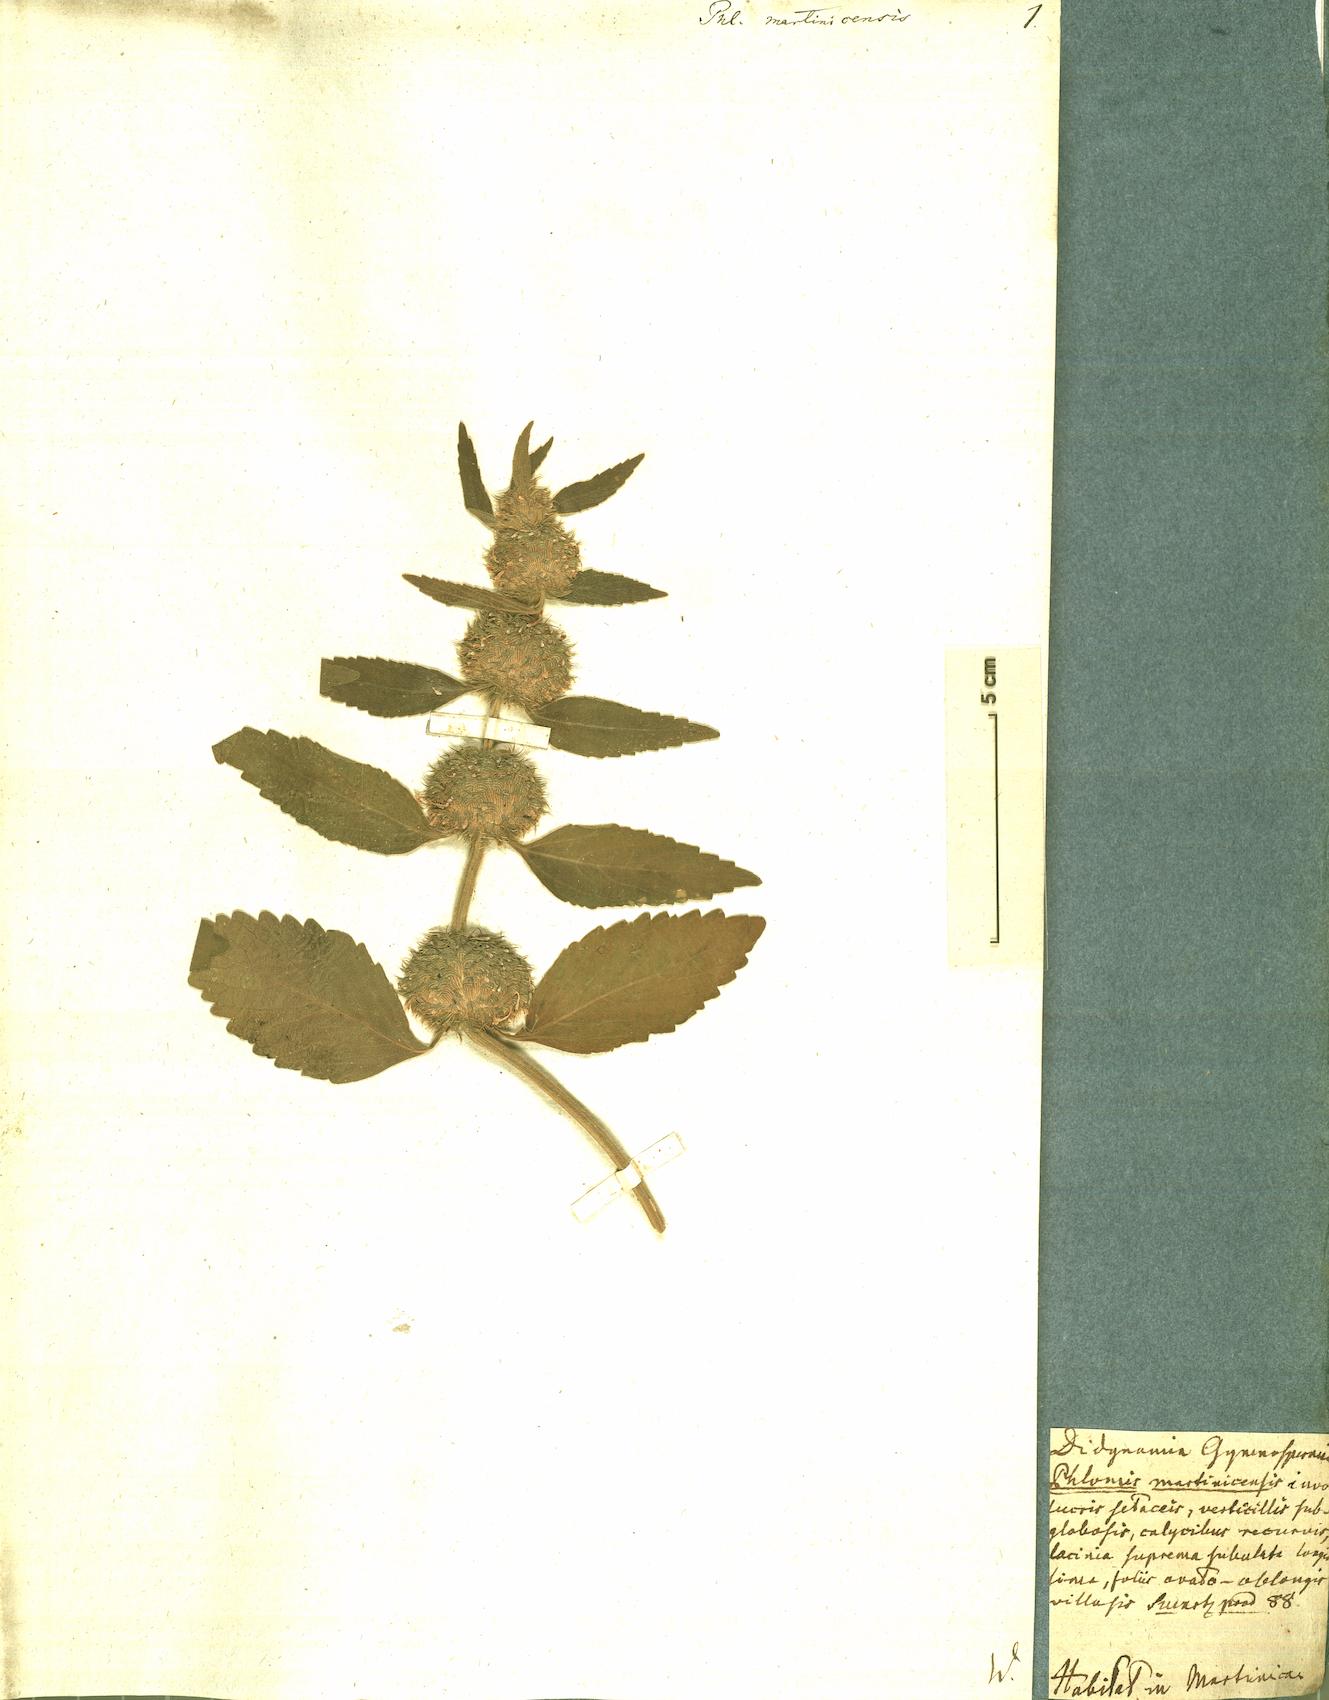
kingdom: Plantae
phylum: Tracheophyta
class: Magnoliopsida
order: Lamiales
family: Lamiaceae
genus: Leucas
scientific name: Leucas martinicensis
